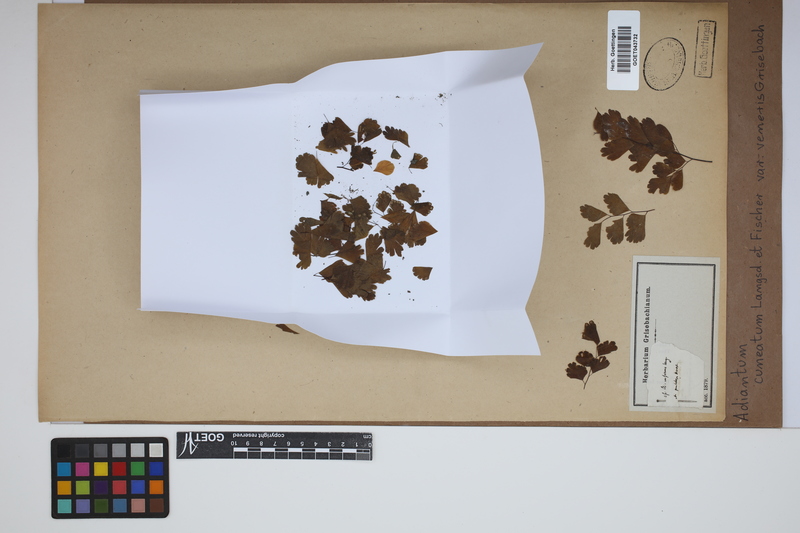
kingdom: Plantae
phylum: Tracheophyta
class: Polypodiopsida
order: Polypodiales
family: Pteridaceae
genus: Adiantum
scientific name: Adiantum lorentzii
